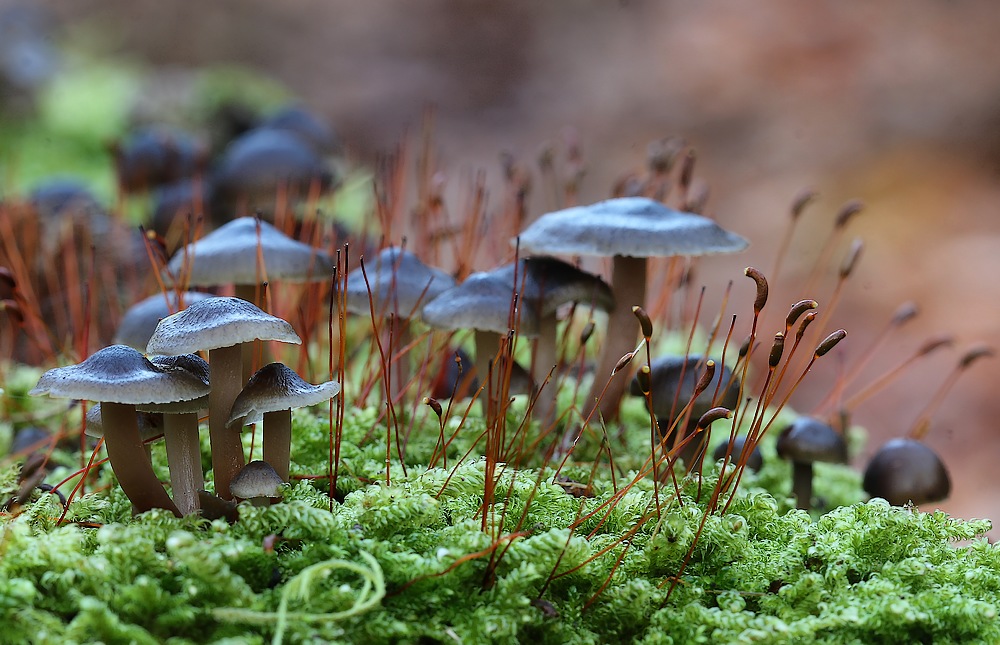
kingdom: Fungi
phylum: Basidiomycota
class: Agaricomycetes
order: Agaricales
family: Mycenaceae
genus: Mycena
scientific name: Mycena tintinnabulum
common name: vinter-huesvamp
